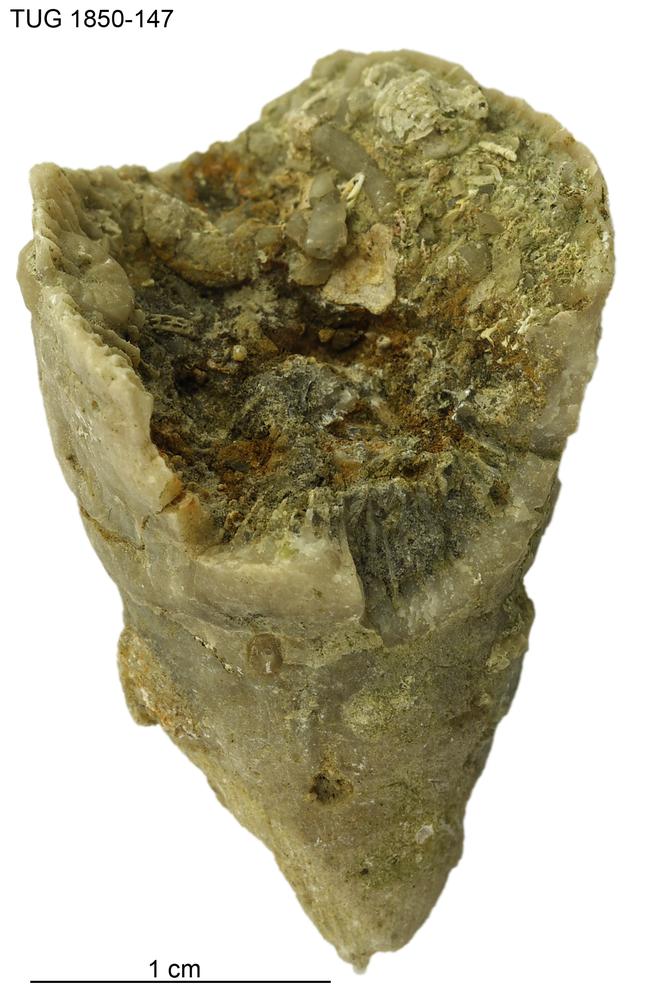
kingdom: Animalia
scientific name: Animalia
